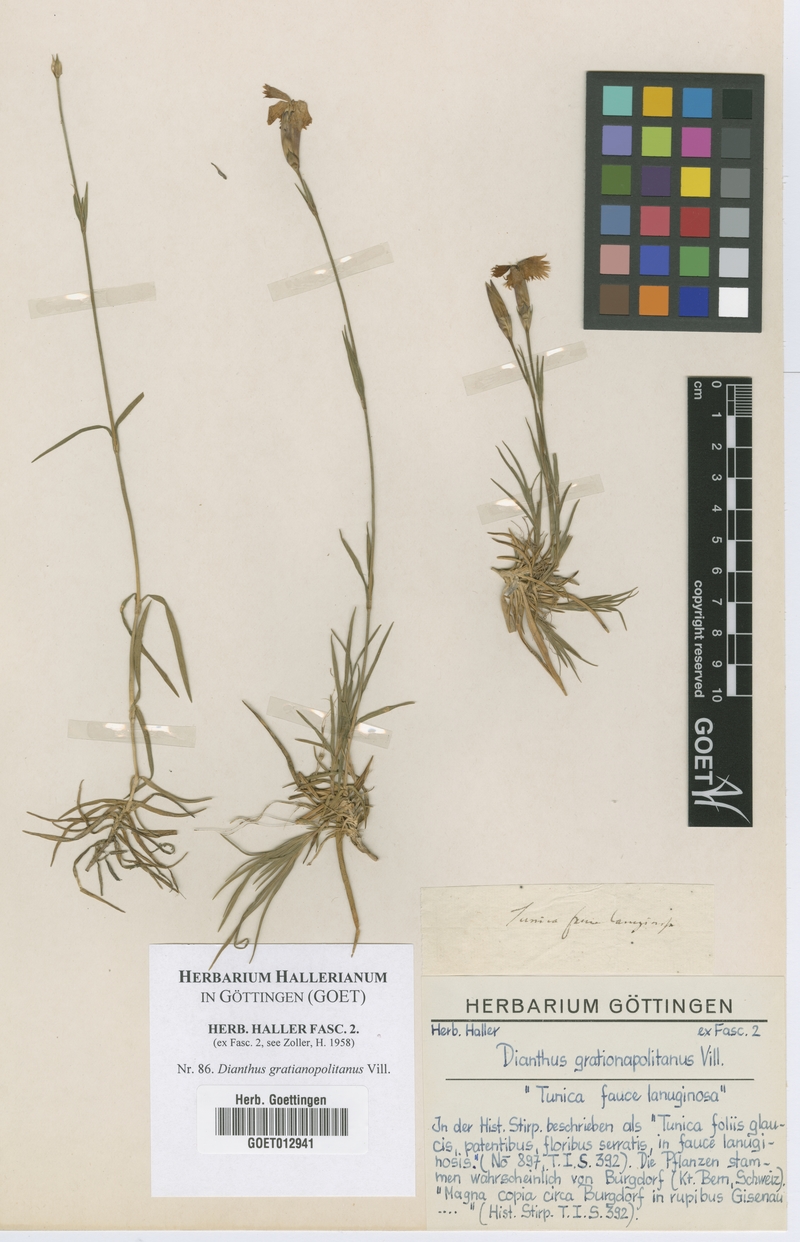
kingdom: Plantae
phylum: Tracheophyta
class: Magnoliopsida
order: Caryophyllales
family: Caryophyllaceae
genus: Dianthus
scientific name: Dianthus gratianopolitanus
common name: Cheddar pink
